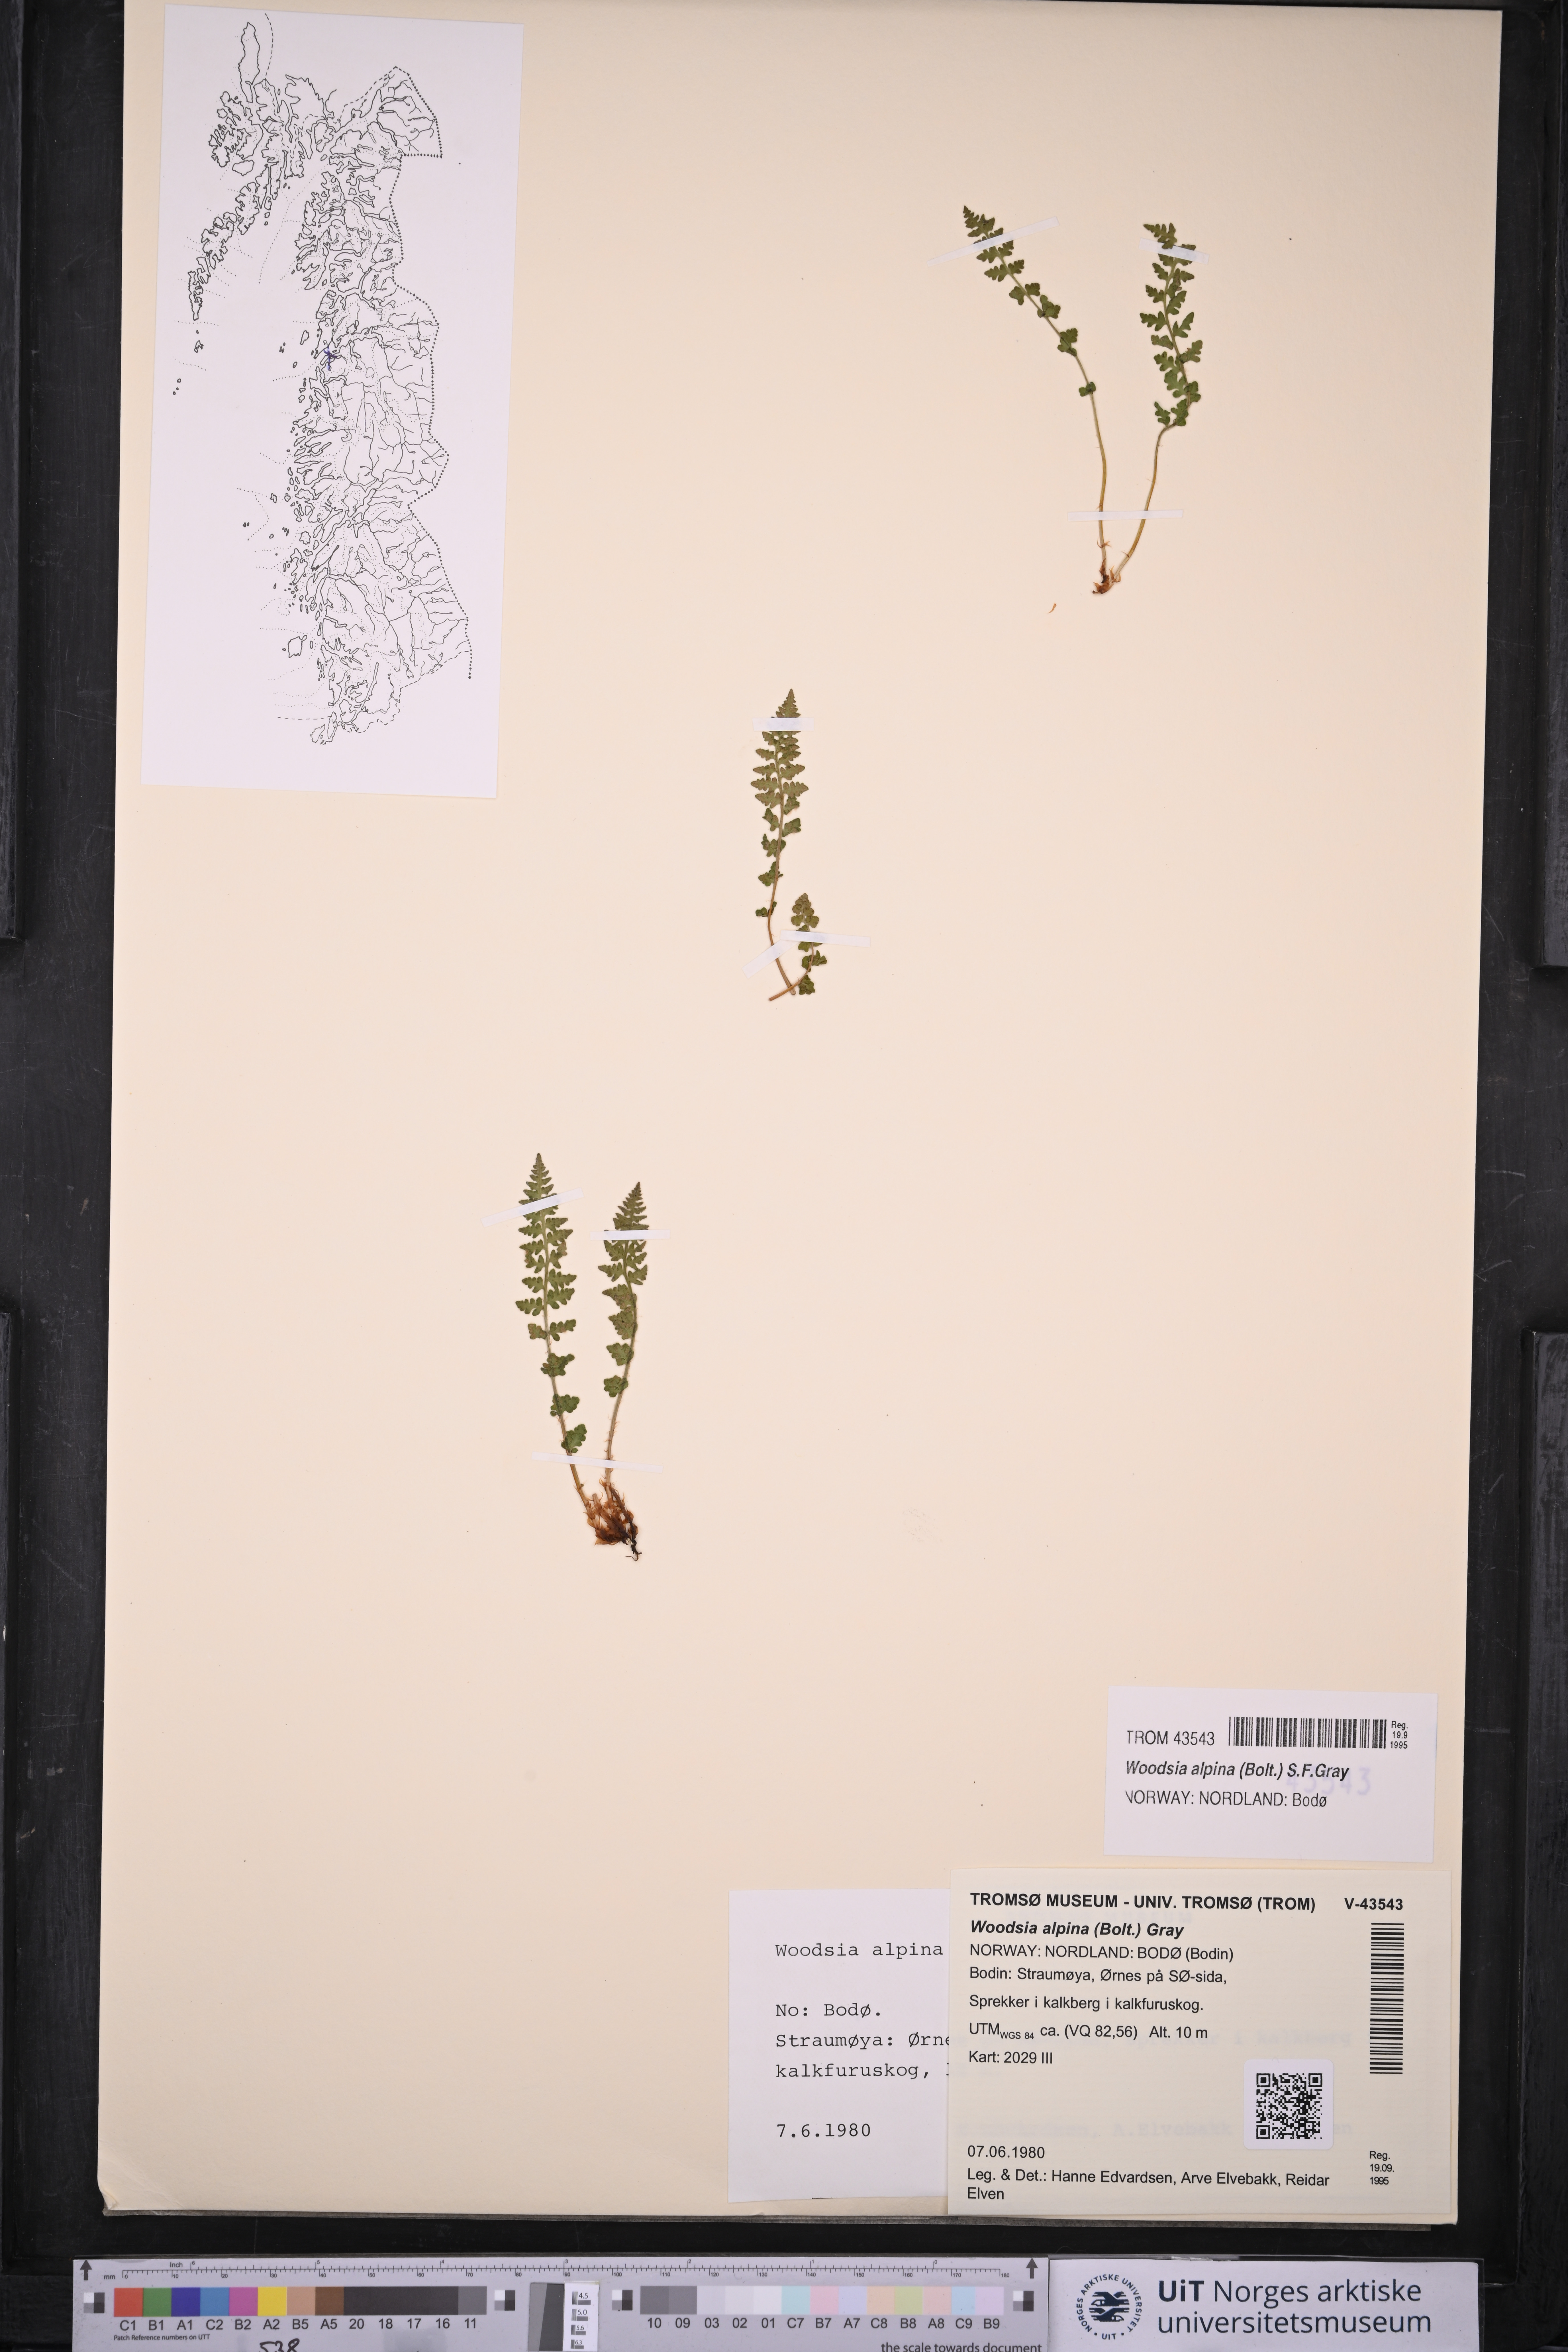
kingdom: Plantae
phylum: Tracheophyta
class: Polypodiopsida
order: Polypodiales
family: Woodsiaceae
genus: Woodsia
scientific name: Woodsia alpina
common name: Alpine woodsia
